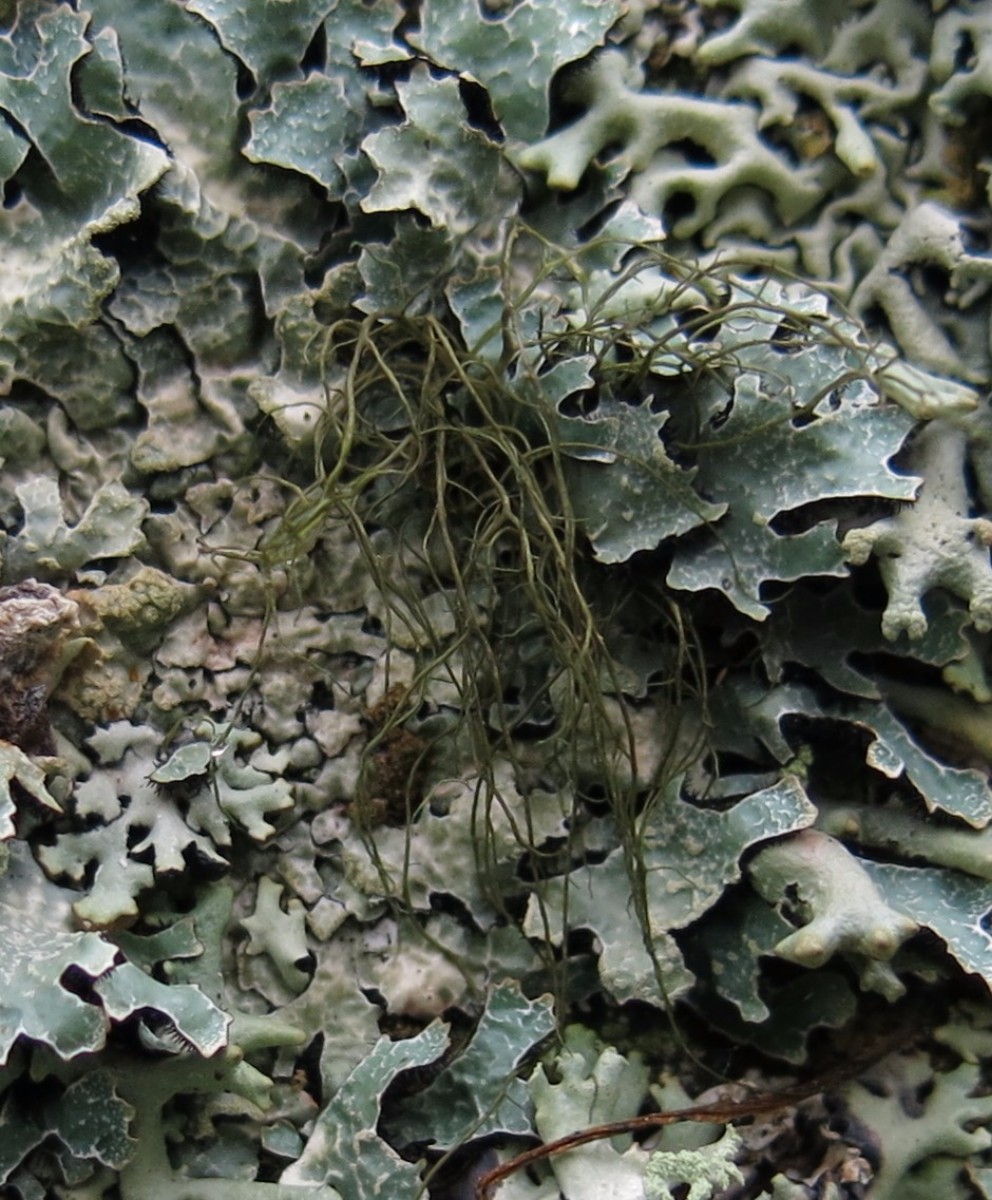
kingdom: Fungi
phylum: Ascomycota
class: Lecanoromycetes
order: Lecanorales
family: Parmeliaceae
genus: Bryoria
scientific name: Bryoria fuscescens
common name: almindelig mankelav
